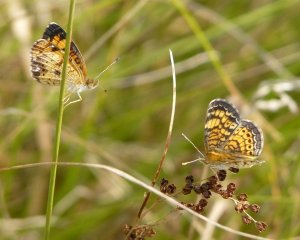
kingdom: Animalia
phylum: Arthropoda
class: Insecta
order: Lepidoptera
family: Nymphalidae
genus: Phyciodes
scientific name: Phyciodes tharos
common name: Pearl Crescent
